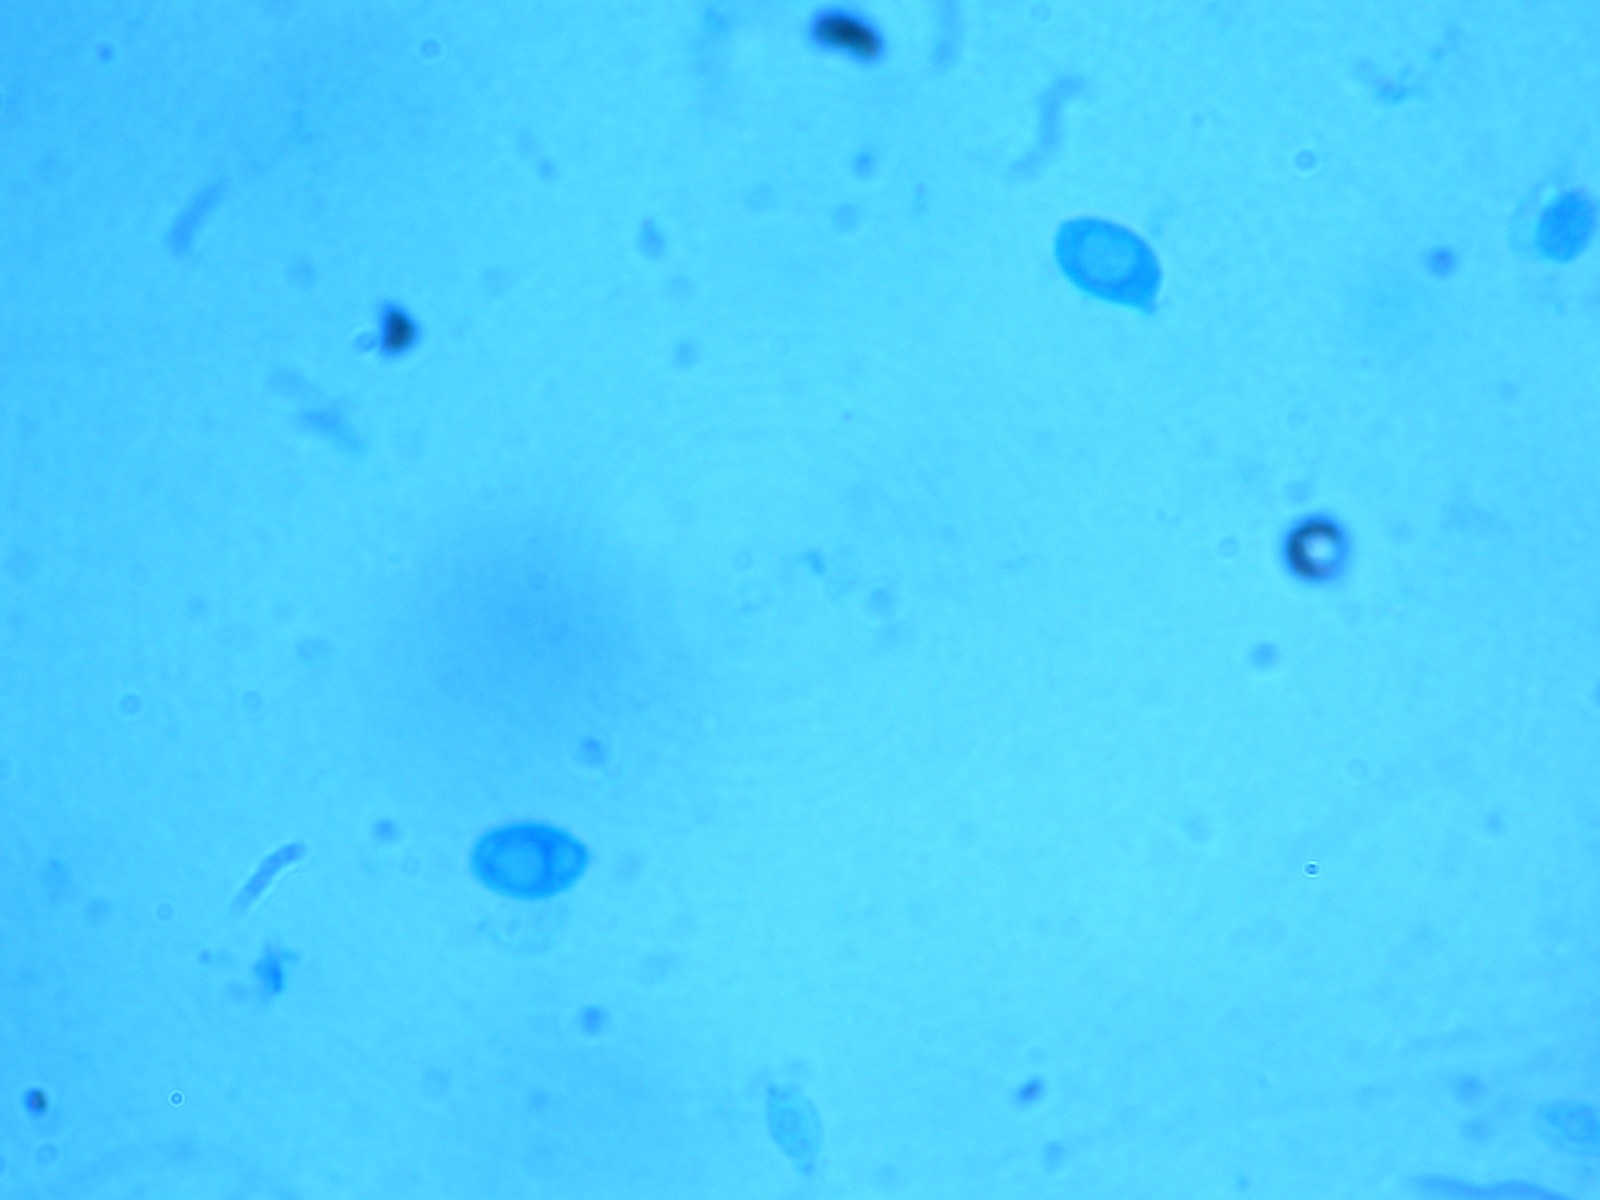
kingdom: Fungi
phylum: Basidiomycota
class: Agaricomycetes
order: Agaricales
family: Tricholomataceae
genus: Clitocybe
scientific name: Clitocybe
